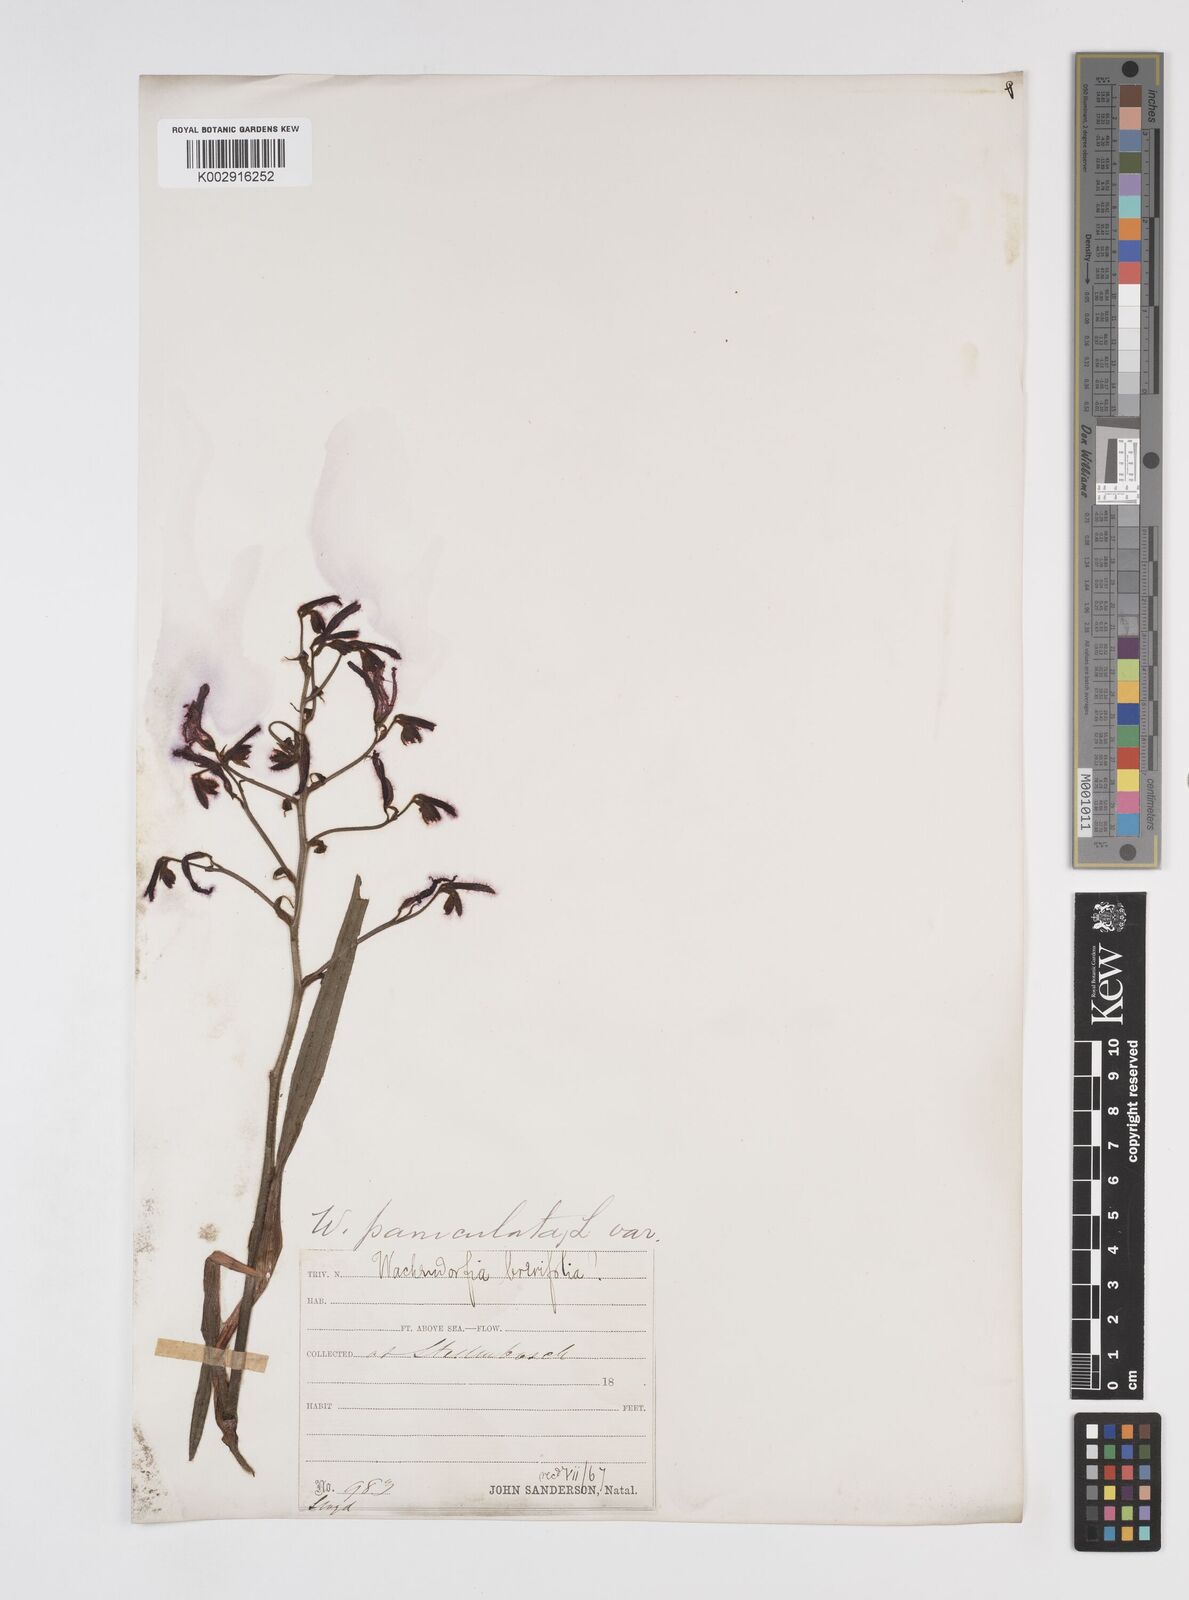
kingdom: Plantae
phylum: Tracheophyta
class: Liliopsida
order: Commelinales
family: Haemodoraceae
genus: Wachendorfia
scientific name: Wachendorfia paniculata
